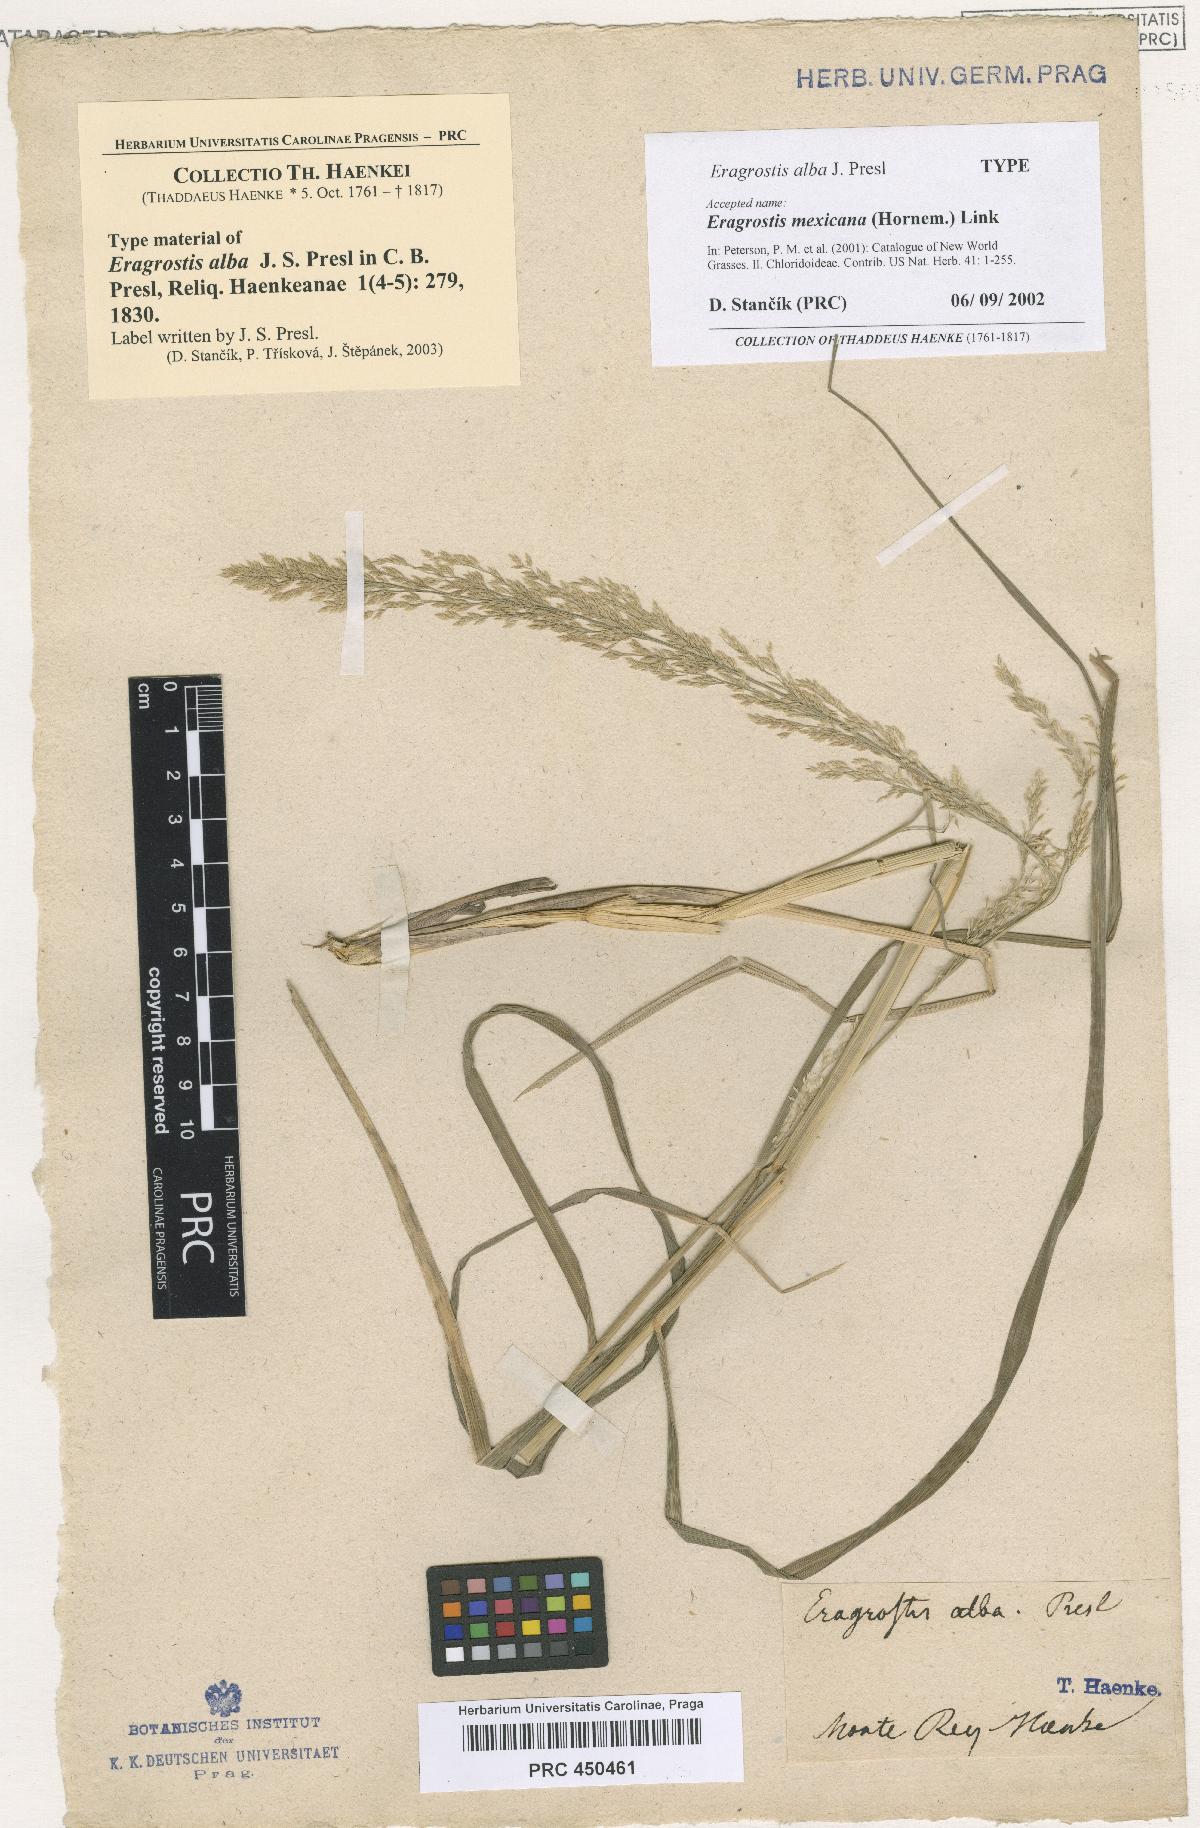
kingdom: Plantae
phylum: Tracheophyta
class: Liliopsida
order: Poales
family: Poaceae
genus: Eragrostis
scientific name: Eragrostis mexicana
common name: Mexican love grass
